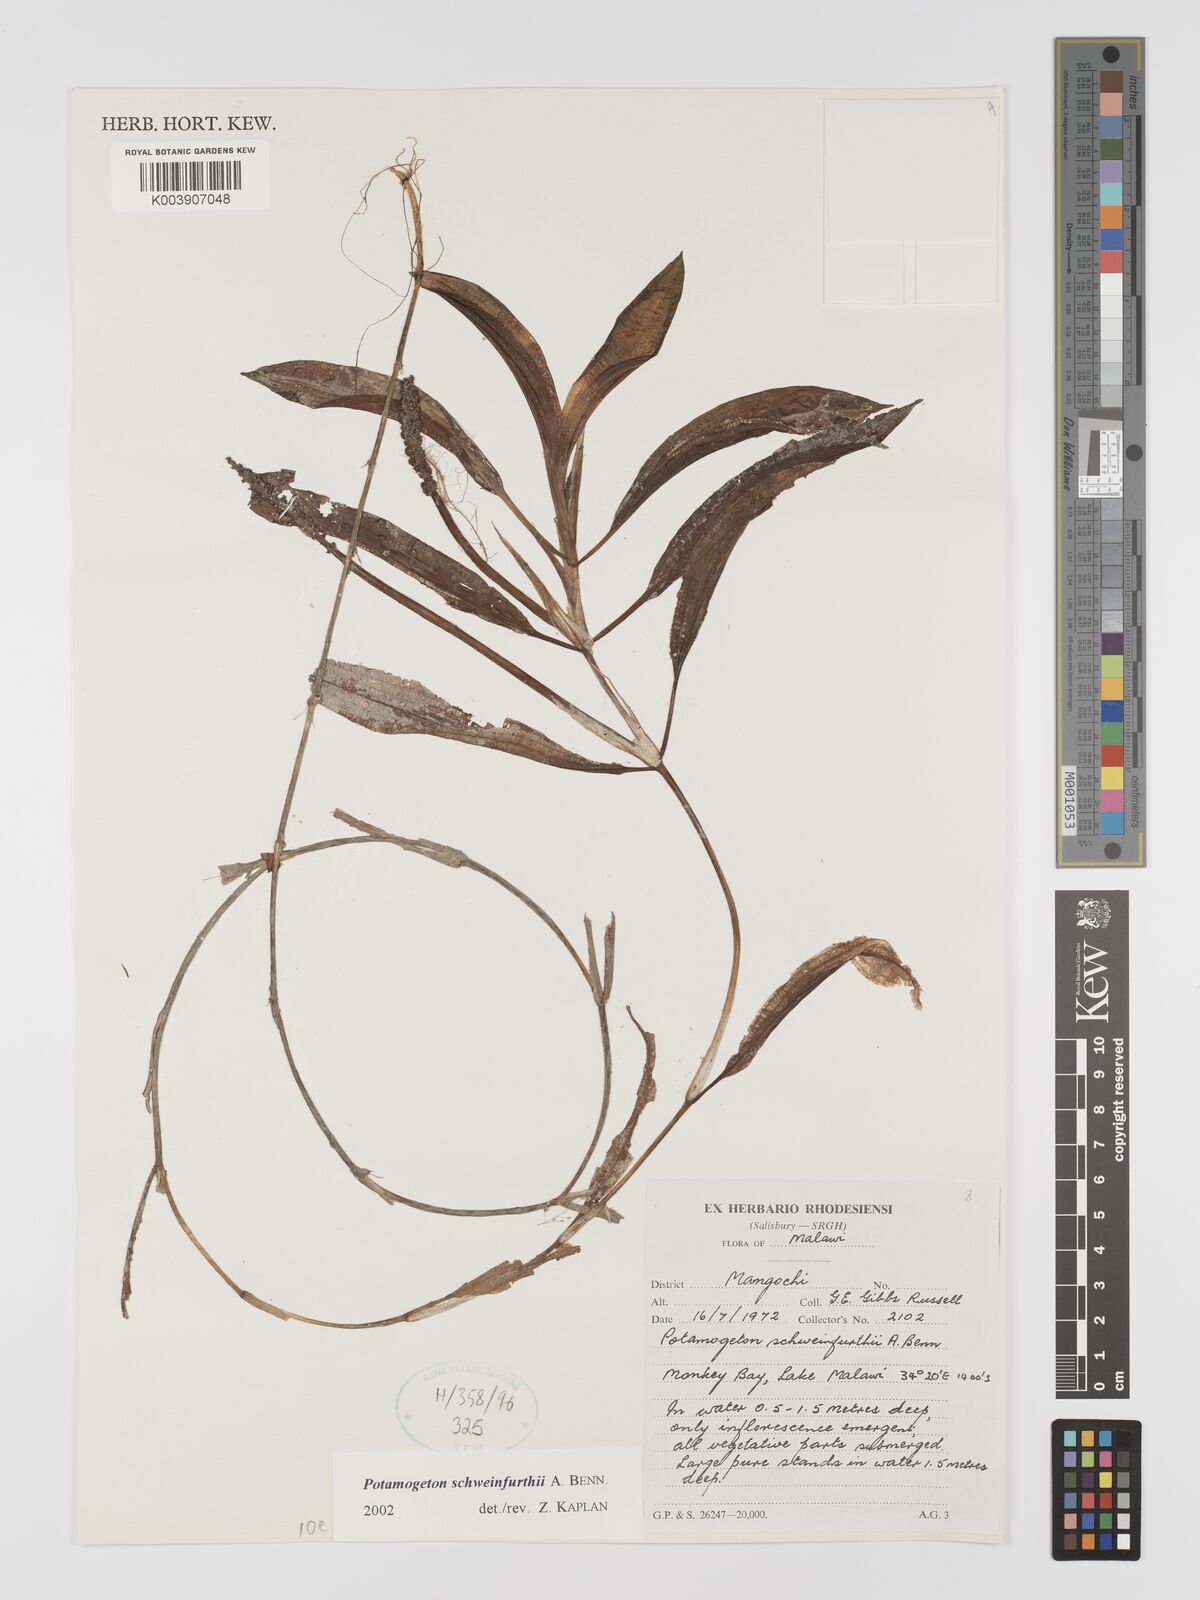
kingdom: Plantae
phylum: Tracheophyta
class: Liliopsida
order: Alismatales
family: Potamogetonaceae
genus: Potamogeton
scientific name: Potamogeton schweinfurthii
